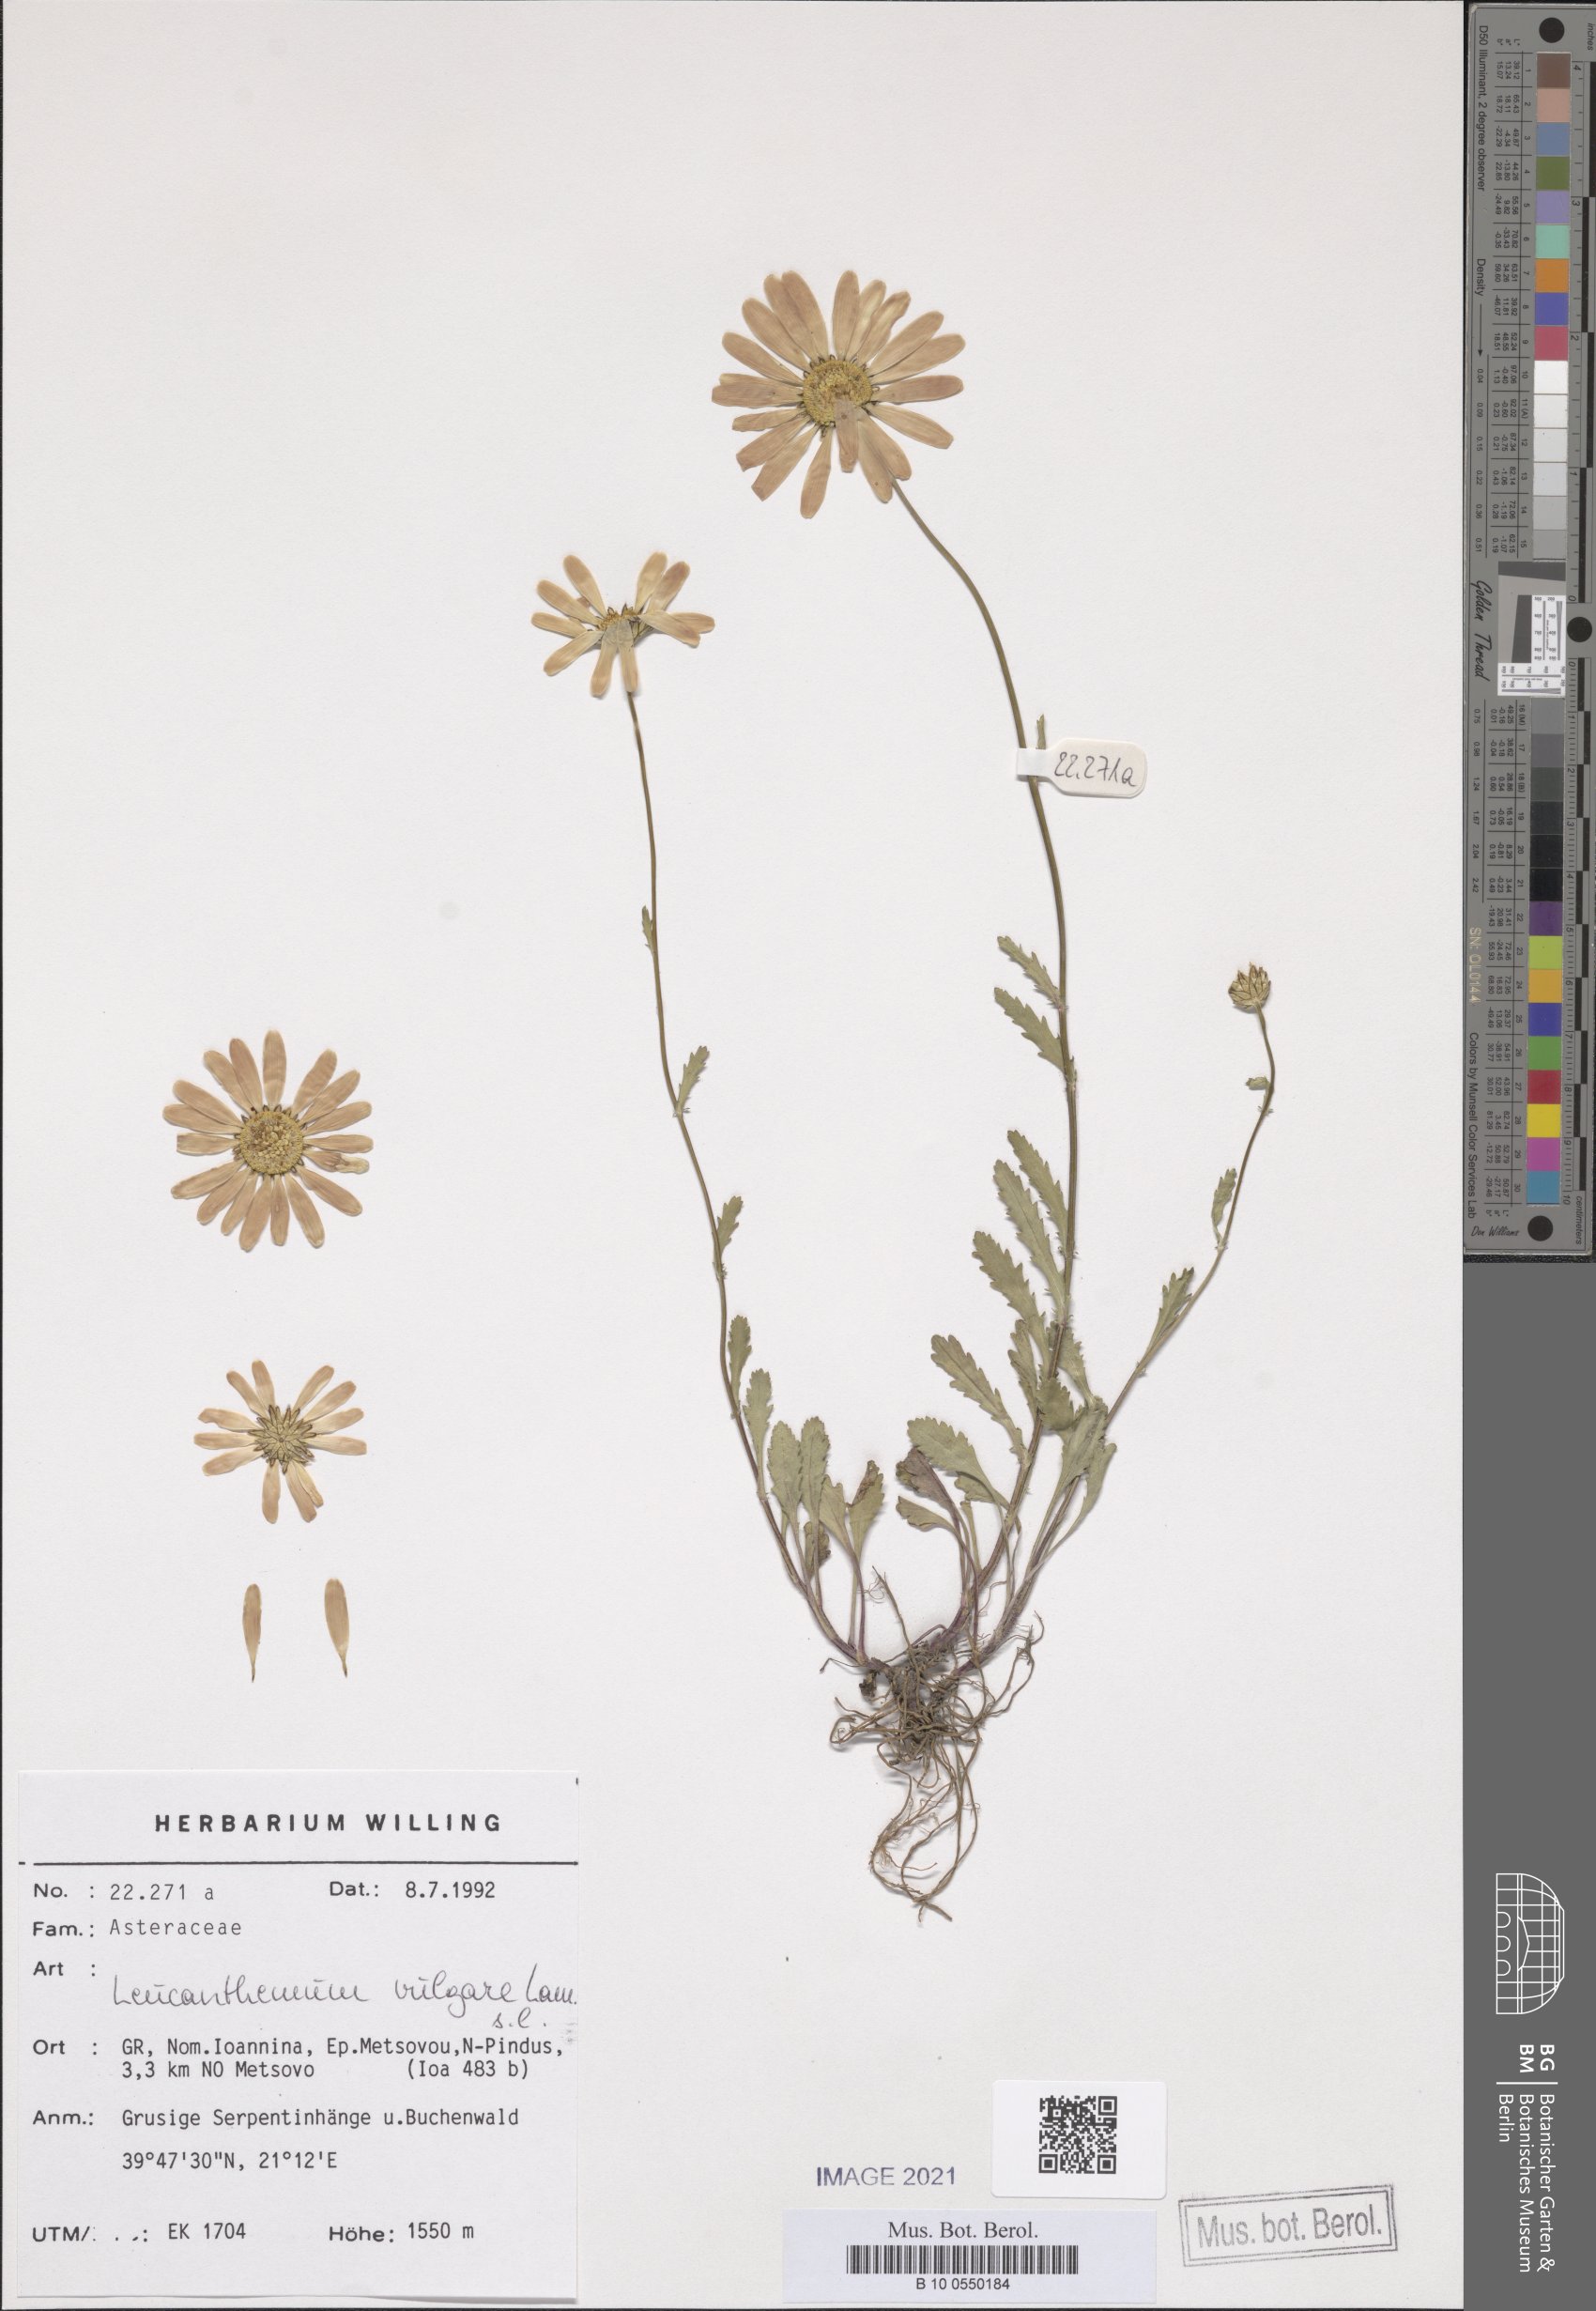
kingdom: Plantae
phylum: Tracheophyta
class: Magnoliopsida
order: Asterales
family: Asteraceae
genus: Leucanthemum
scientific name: Leucanthemum ircutianum
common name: Daisy
